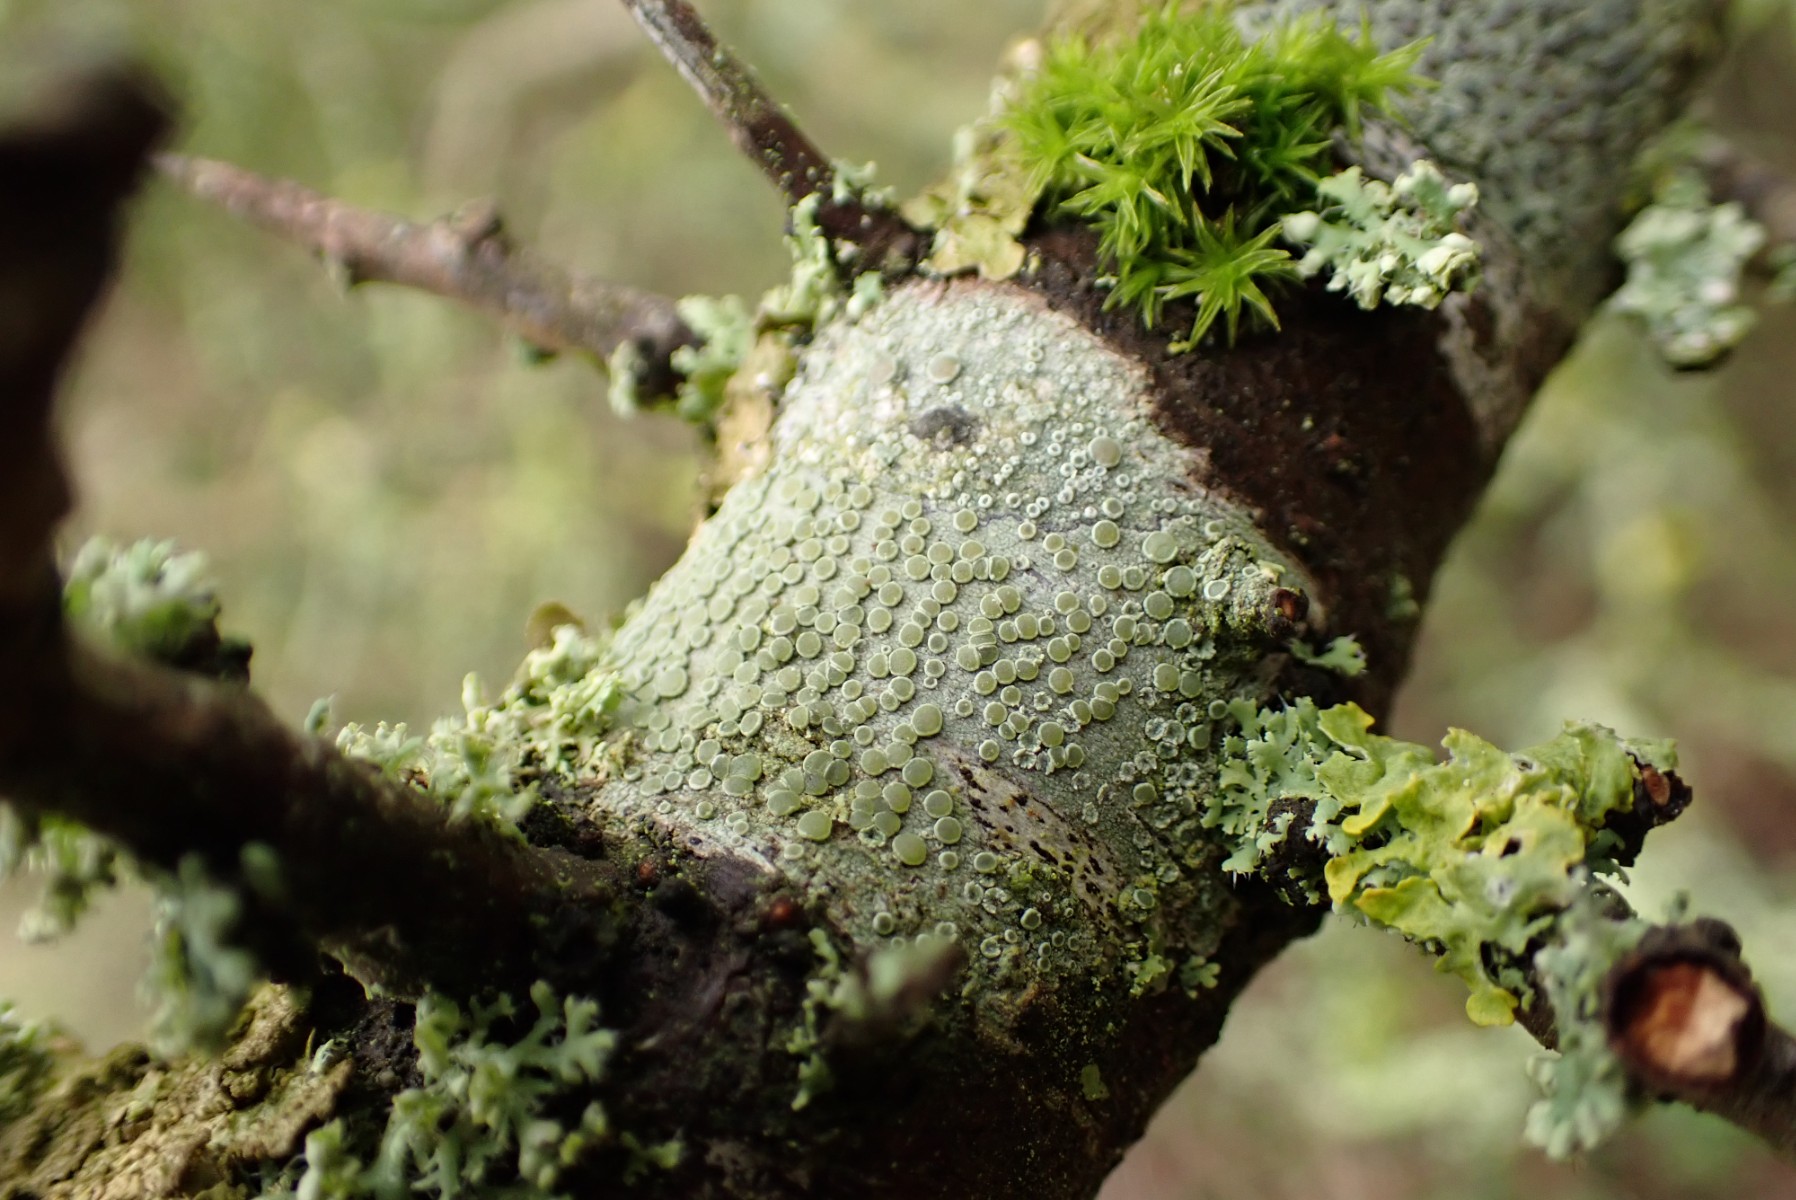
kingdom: Fungi
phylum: Ascomycota
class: Lecanoromycetes
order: Lecanorales
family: Lecanoraceae
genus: Lecanora
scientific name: Lecanora chlarotera
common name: brun kantskivelav
